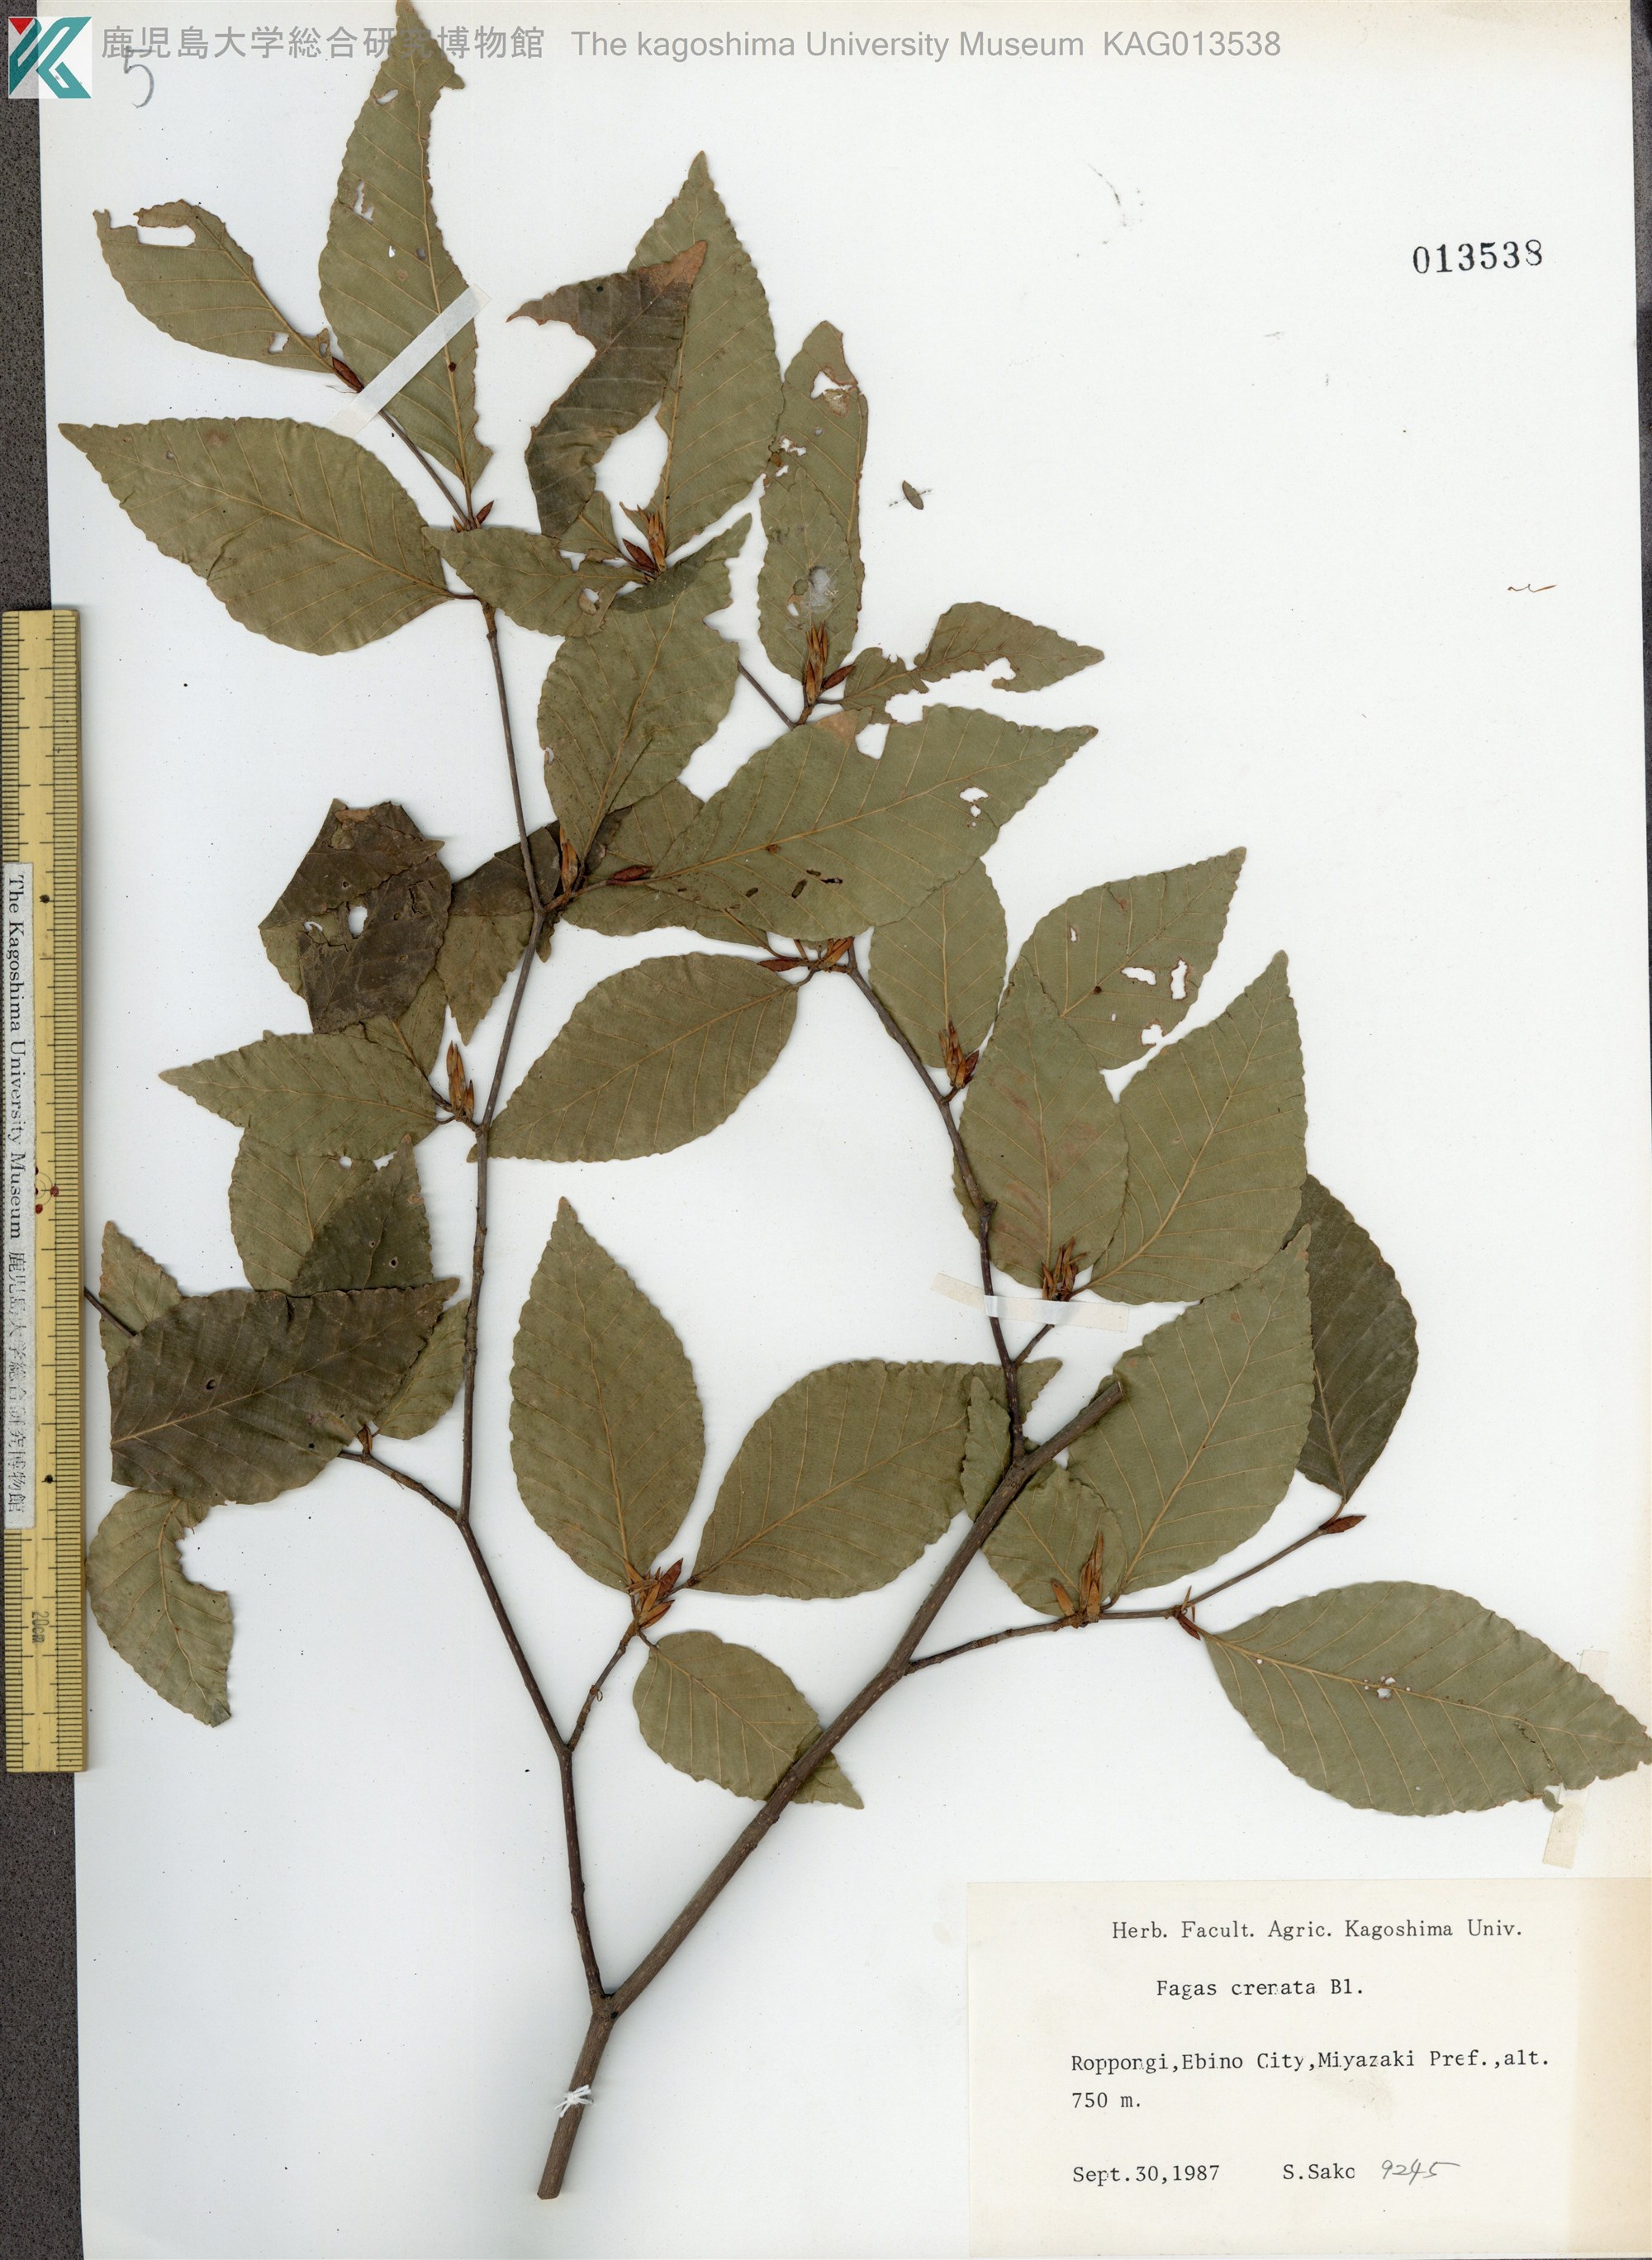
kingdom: Plantae
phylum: Tracheophyta
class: Magnoliopsida
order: Fagales
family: Fagaceae
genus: Fagus
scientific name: Fagus crenata
